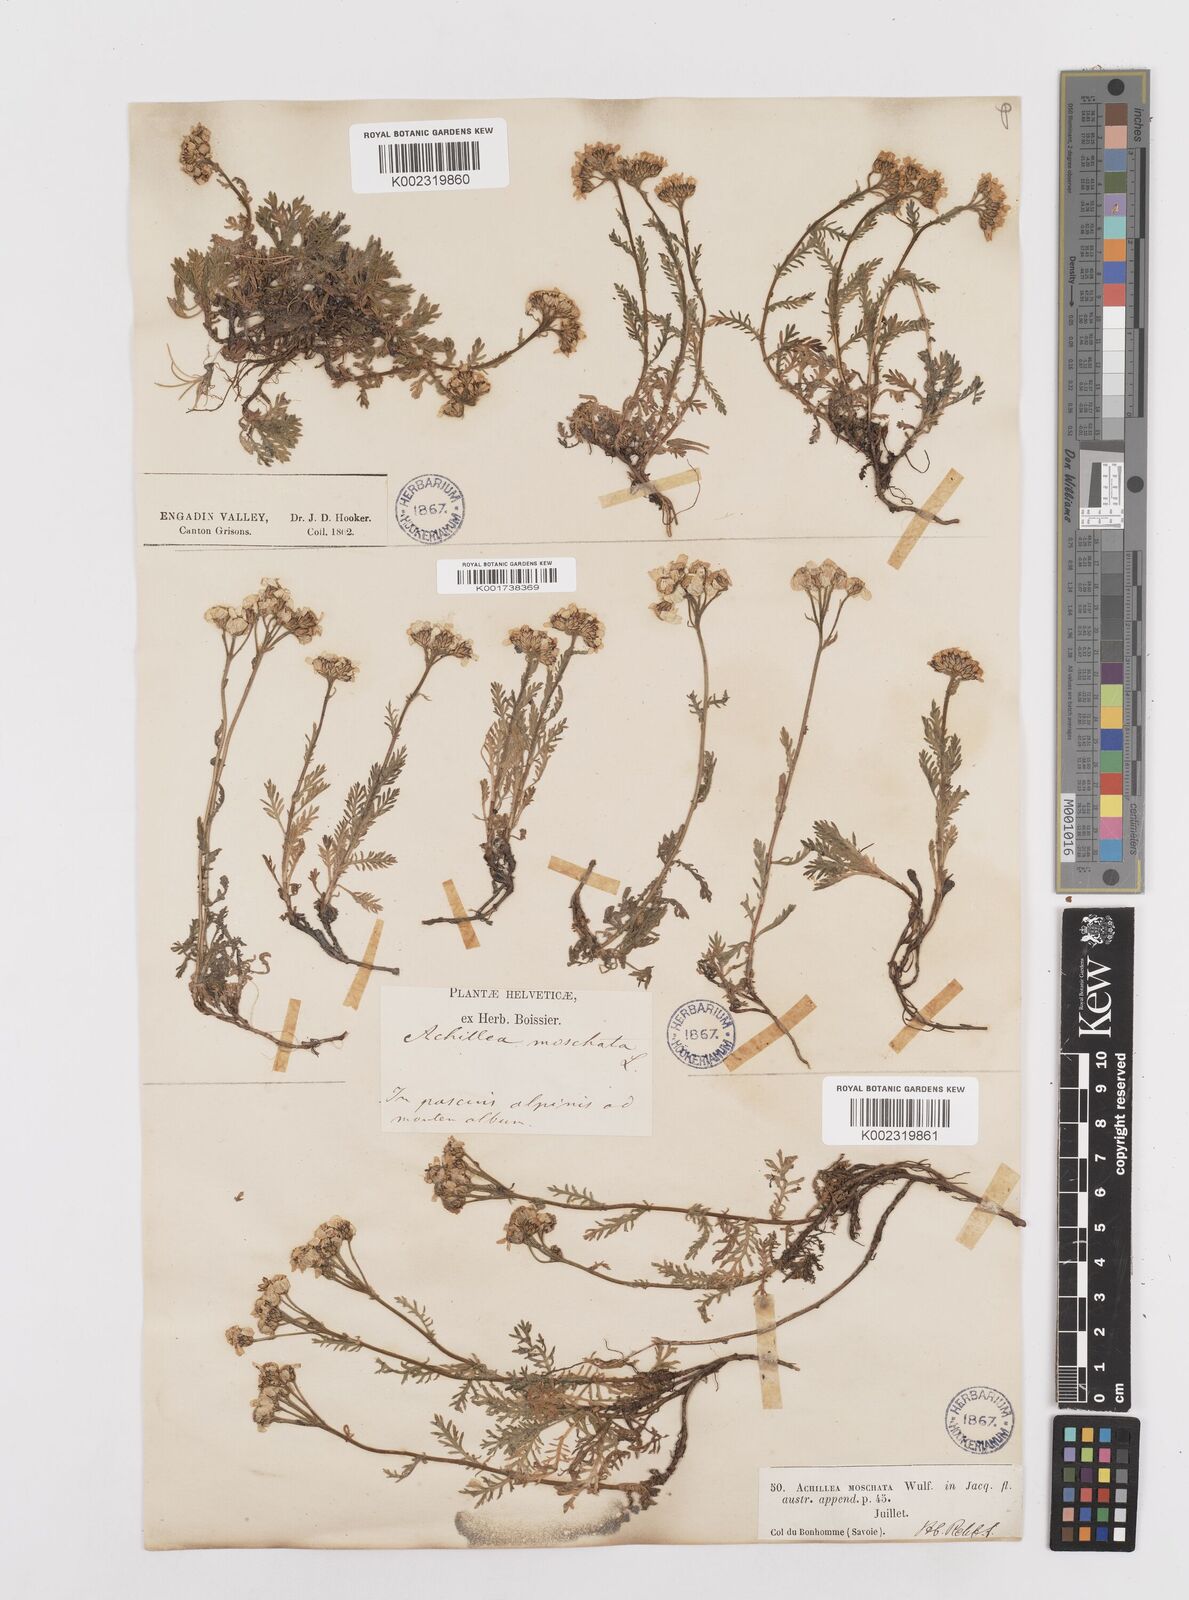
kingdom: Plantae
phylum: Tracheophyta
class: Magnoliopsida
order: Asterales
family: Asteraceae
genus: Achillea
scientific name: Achillea erba-rotta
